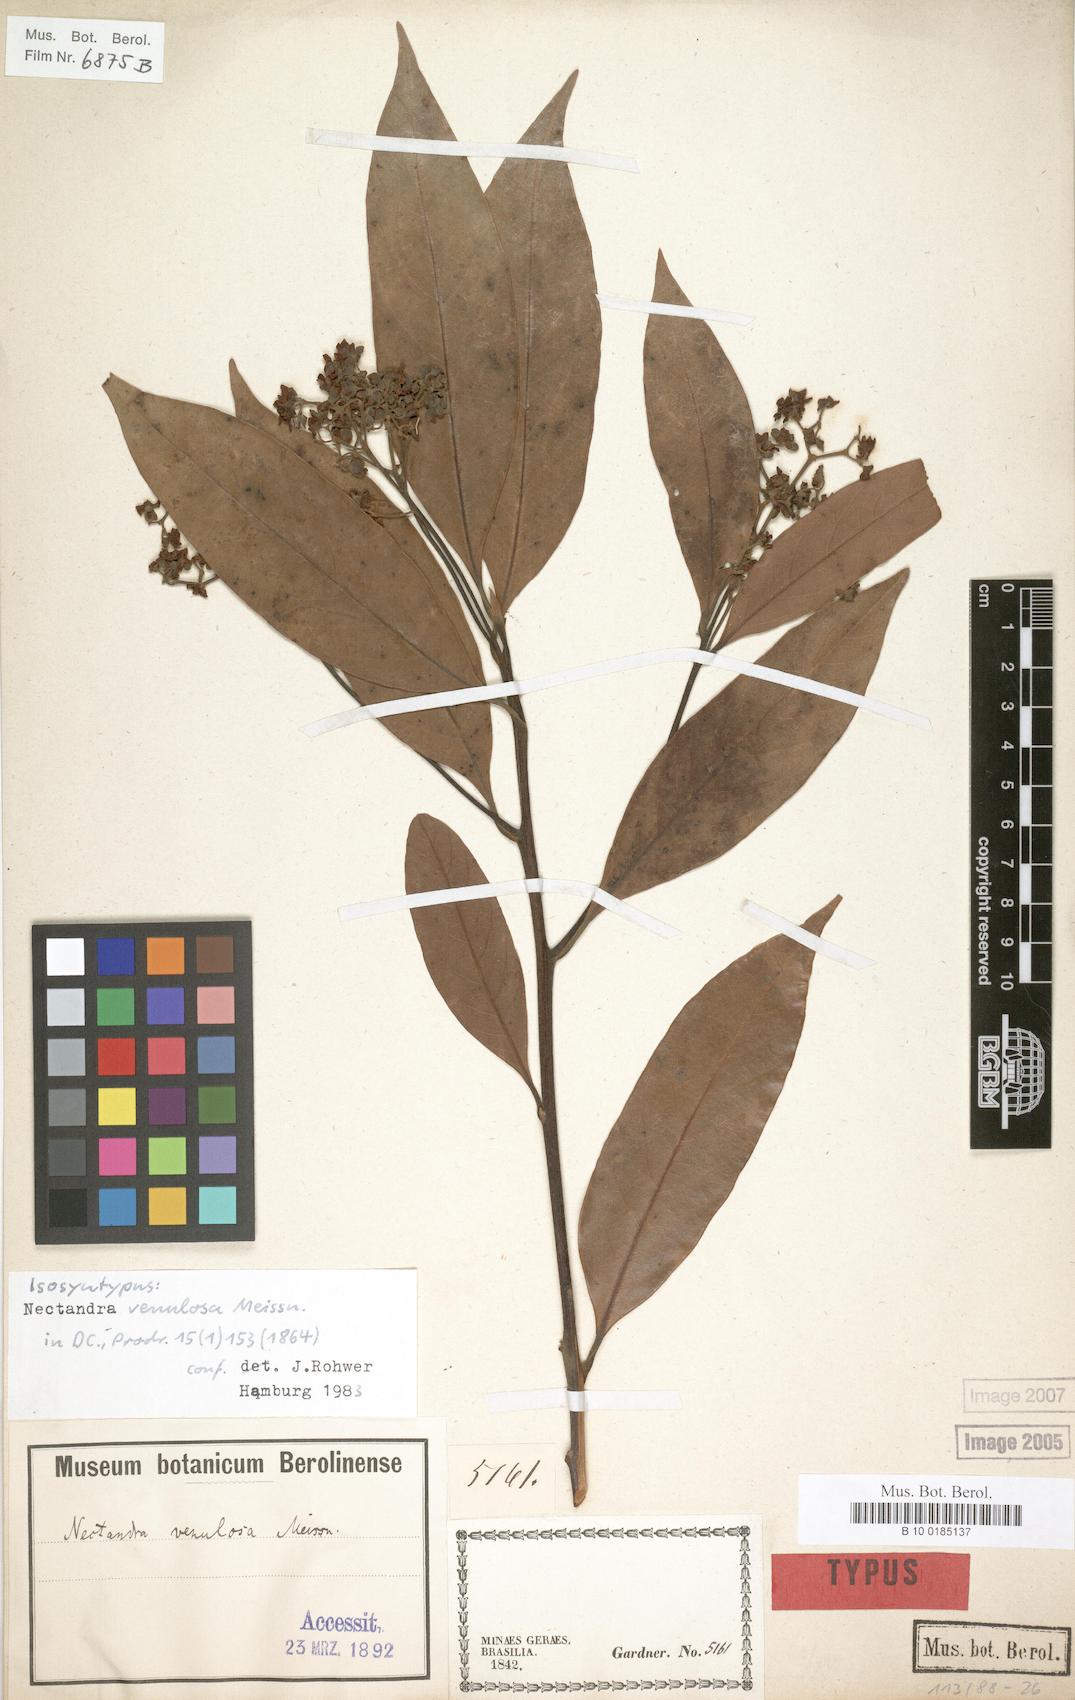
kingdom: Plantae
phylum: Tracheophyta
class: Magnoliopsida
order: Laurales
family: Lauraceae
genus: Nectandra
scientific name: Nectandra venulosa
